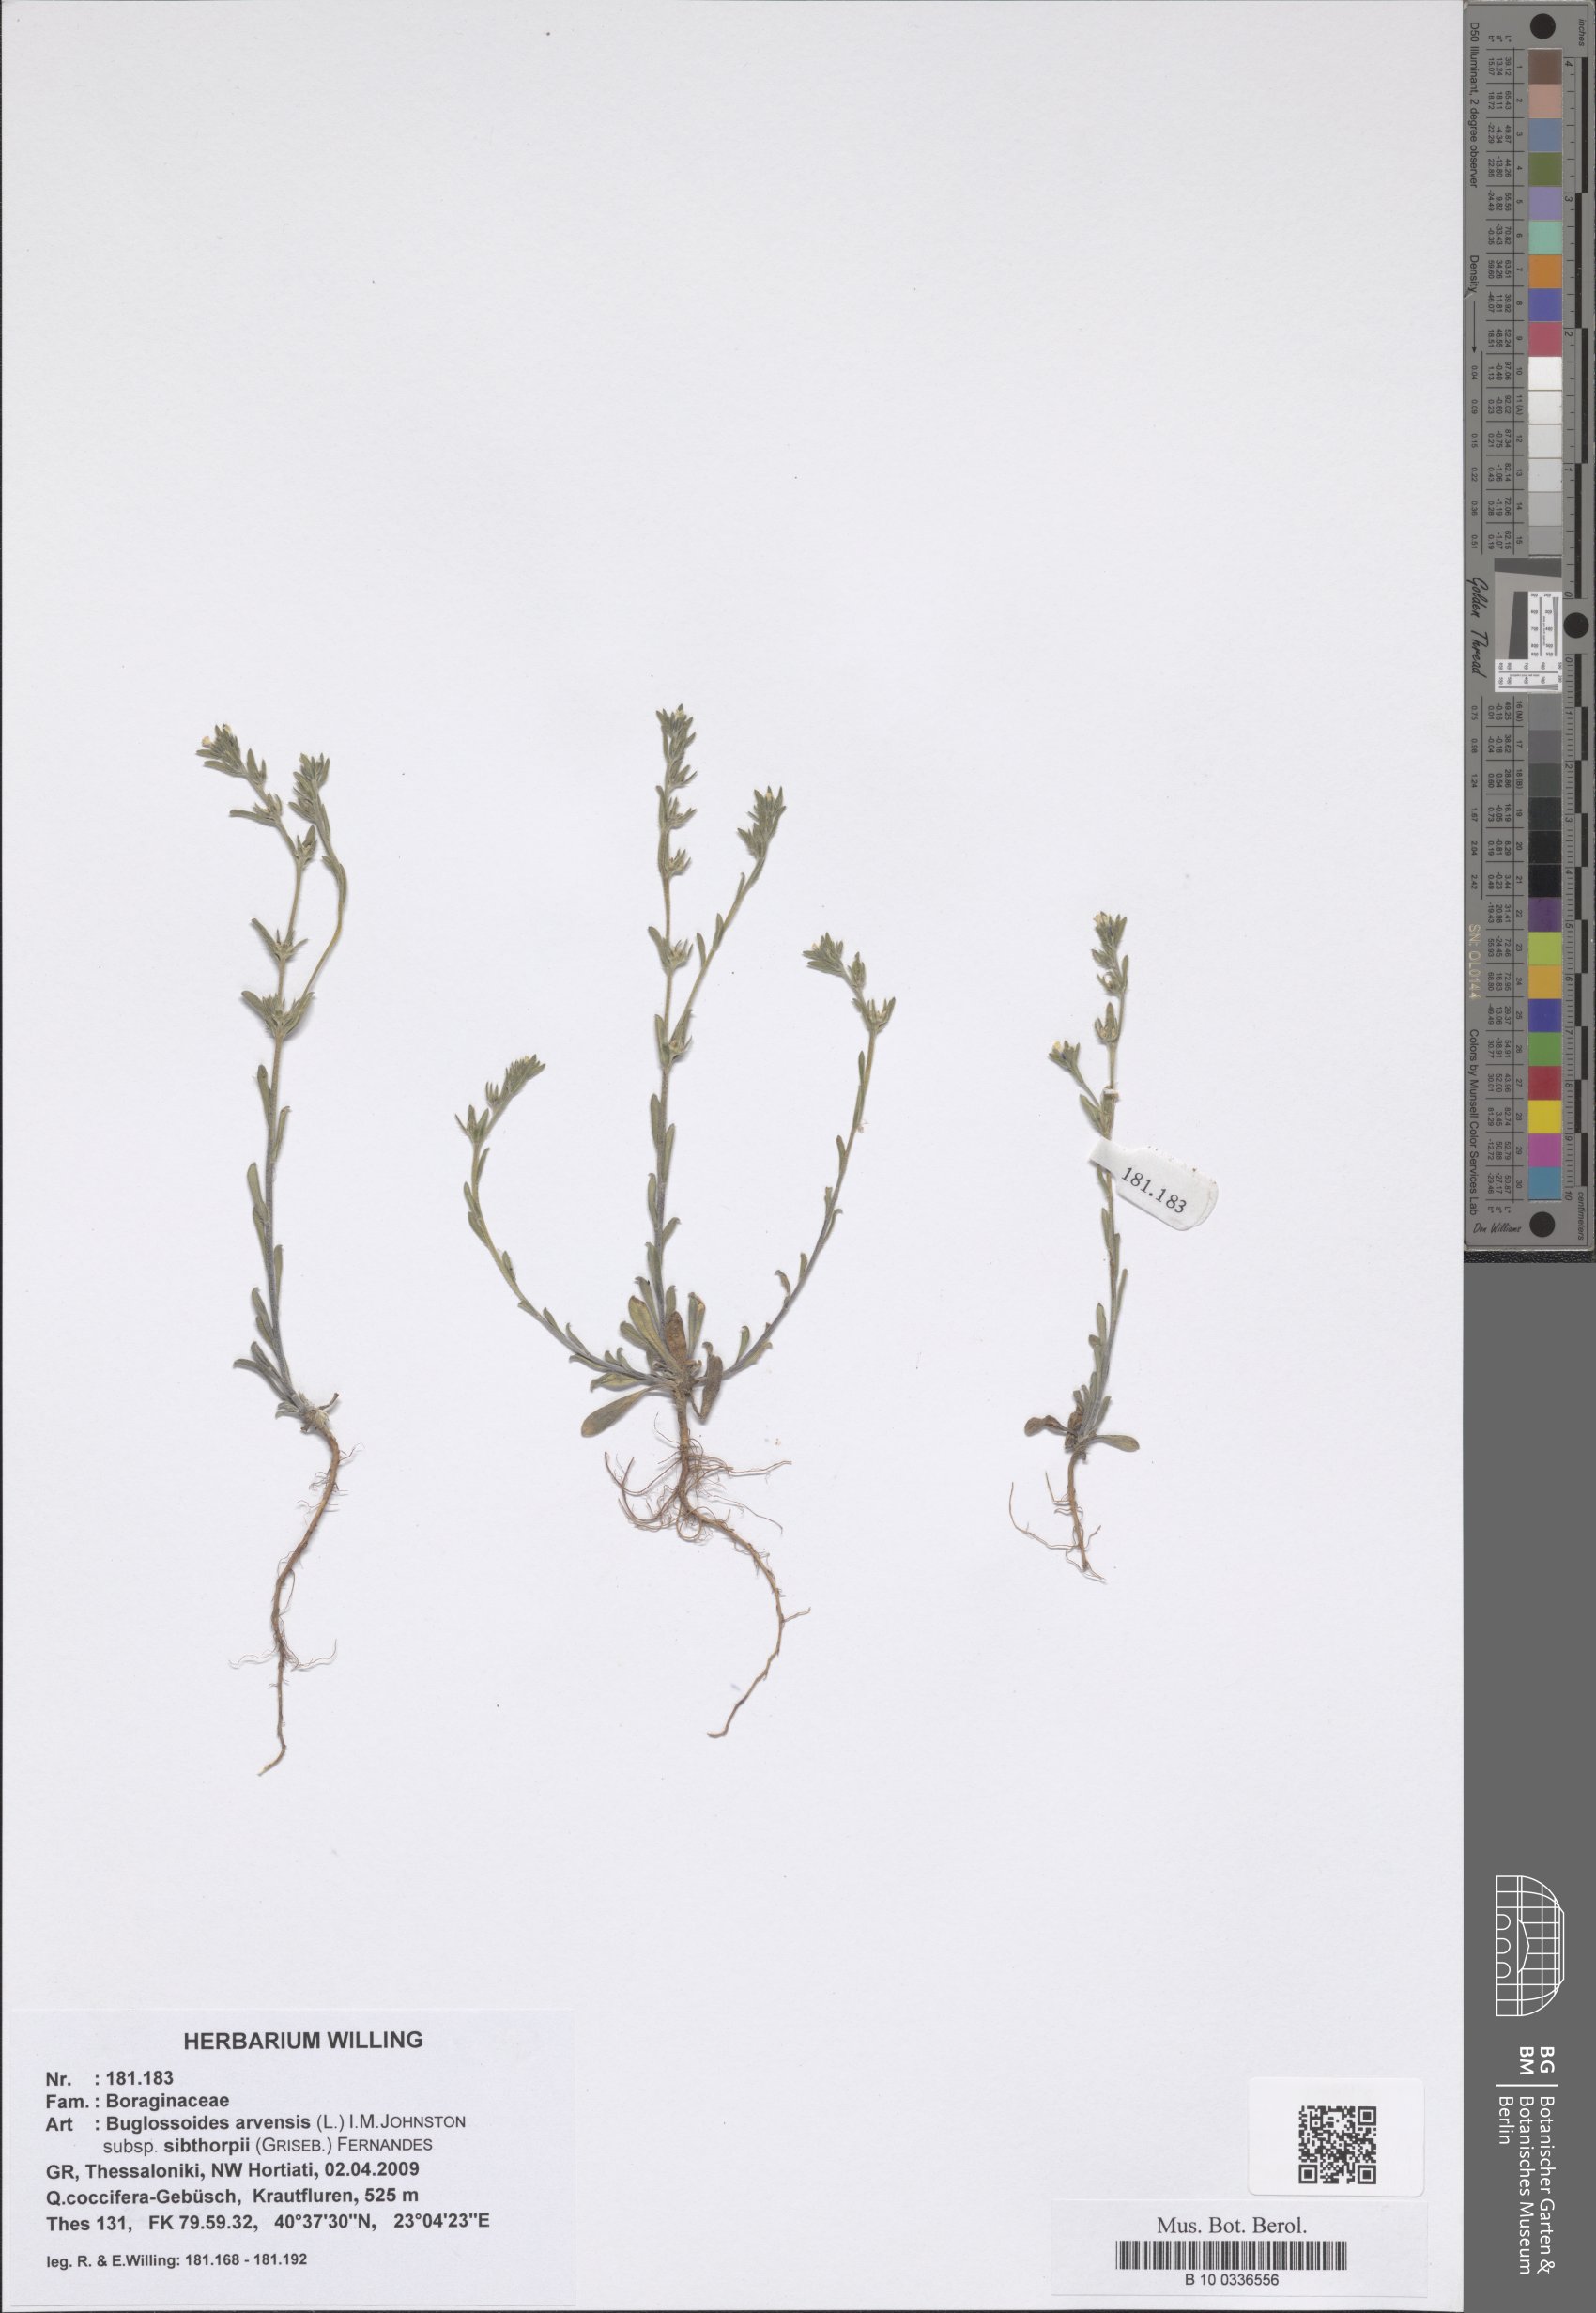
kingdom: Plantae
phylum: Tracheophyta
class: Magnoliopsida
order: Boraginales
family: Boraginaceae
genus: Buglossoides
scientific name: Buglossoides arvensis
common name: Corn gromwell
